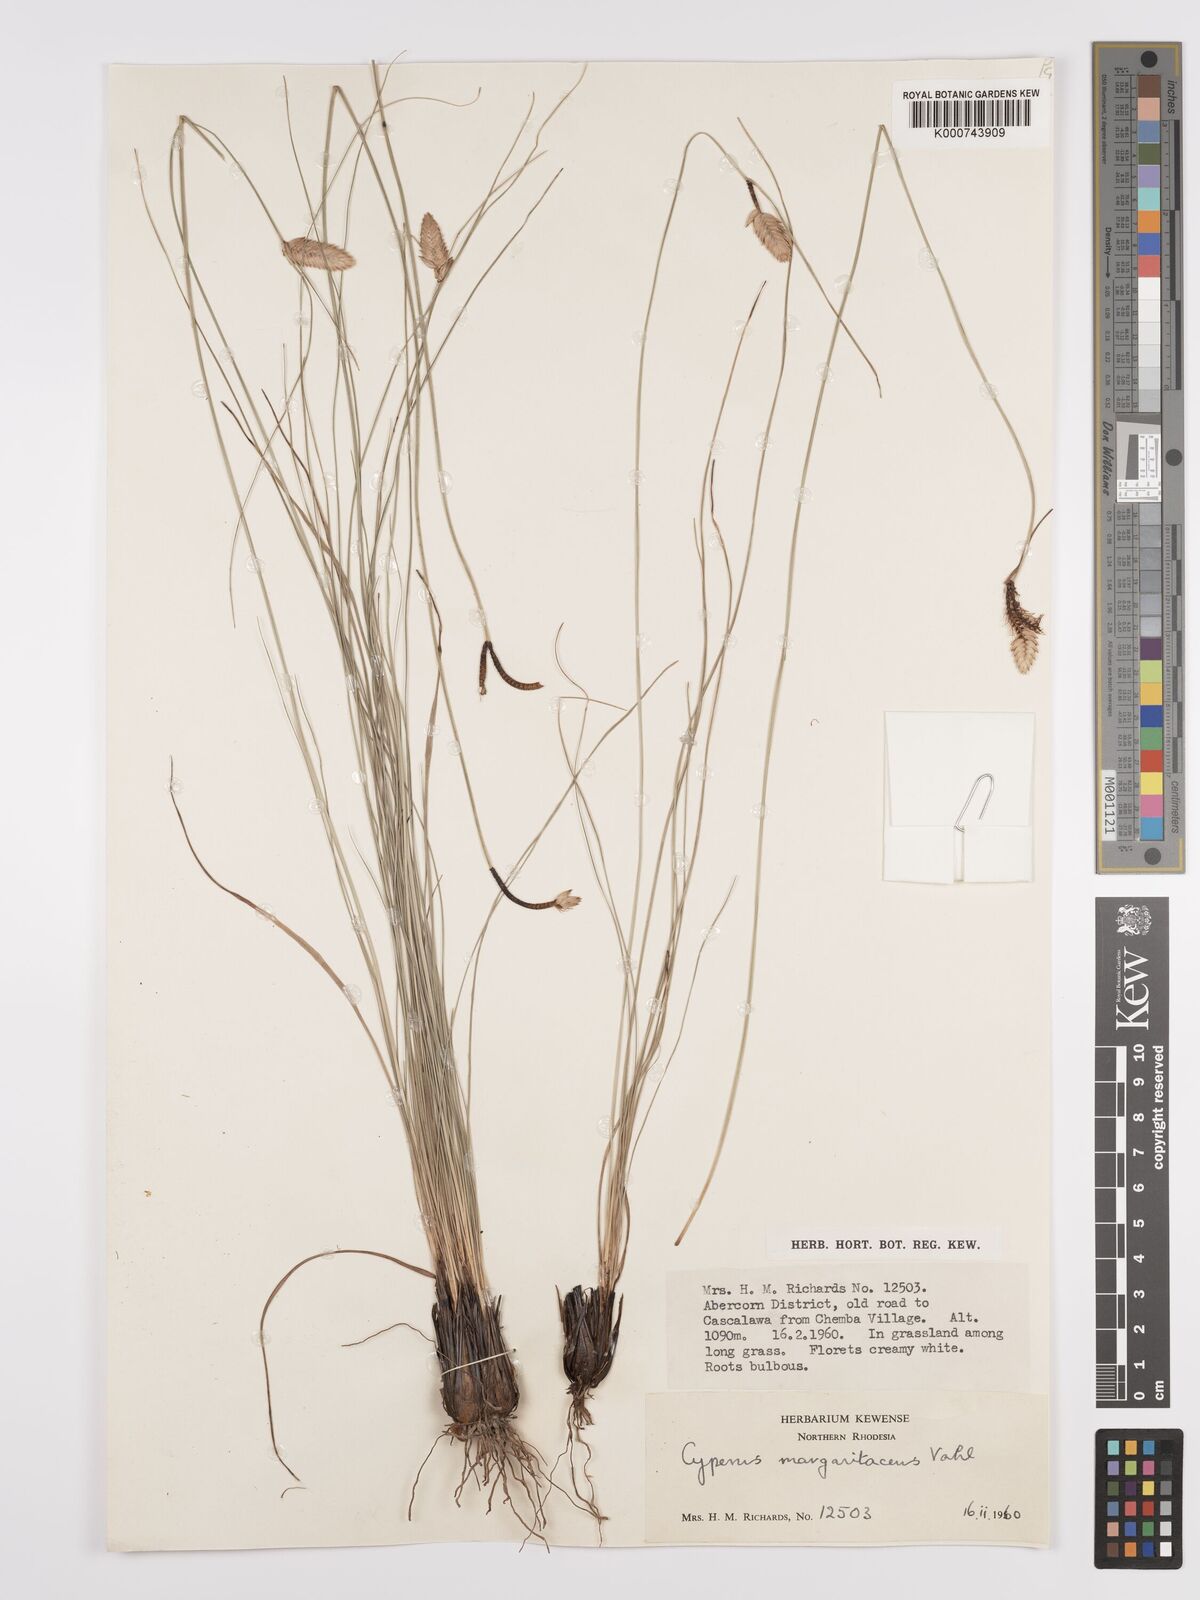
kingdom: Plantae
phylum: Tracheophyta
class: Liliopsida
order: Poales
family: Cyperaceae
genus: Cyperus
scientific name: Cyperus margaritaceus
